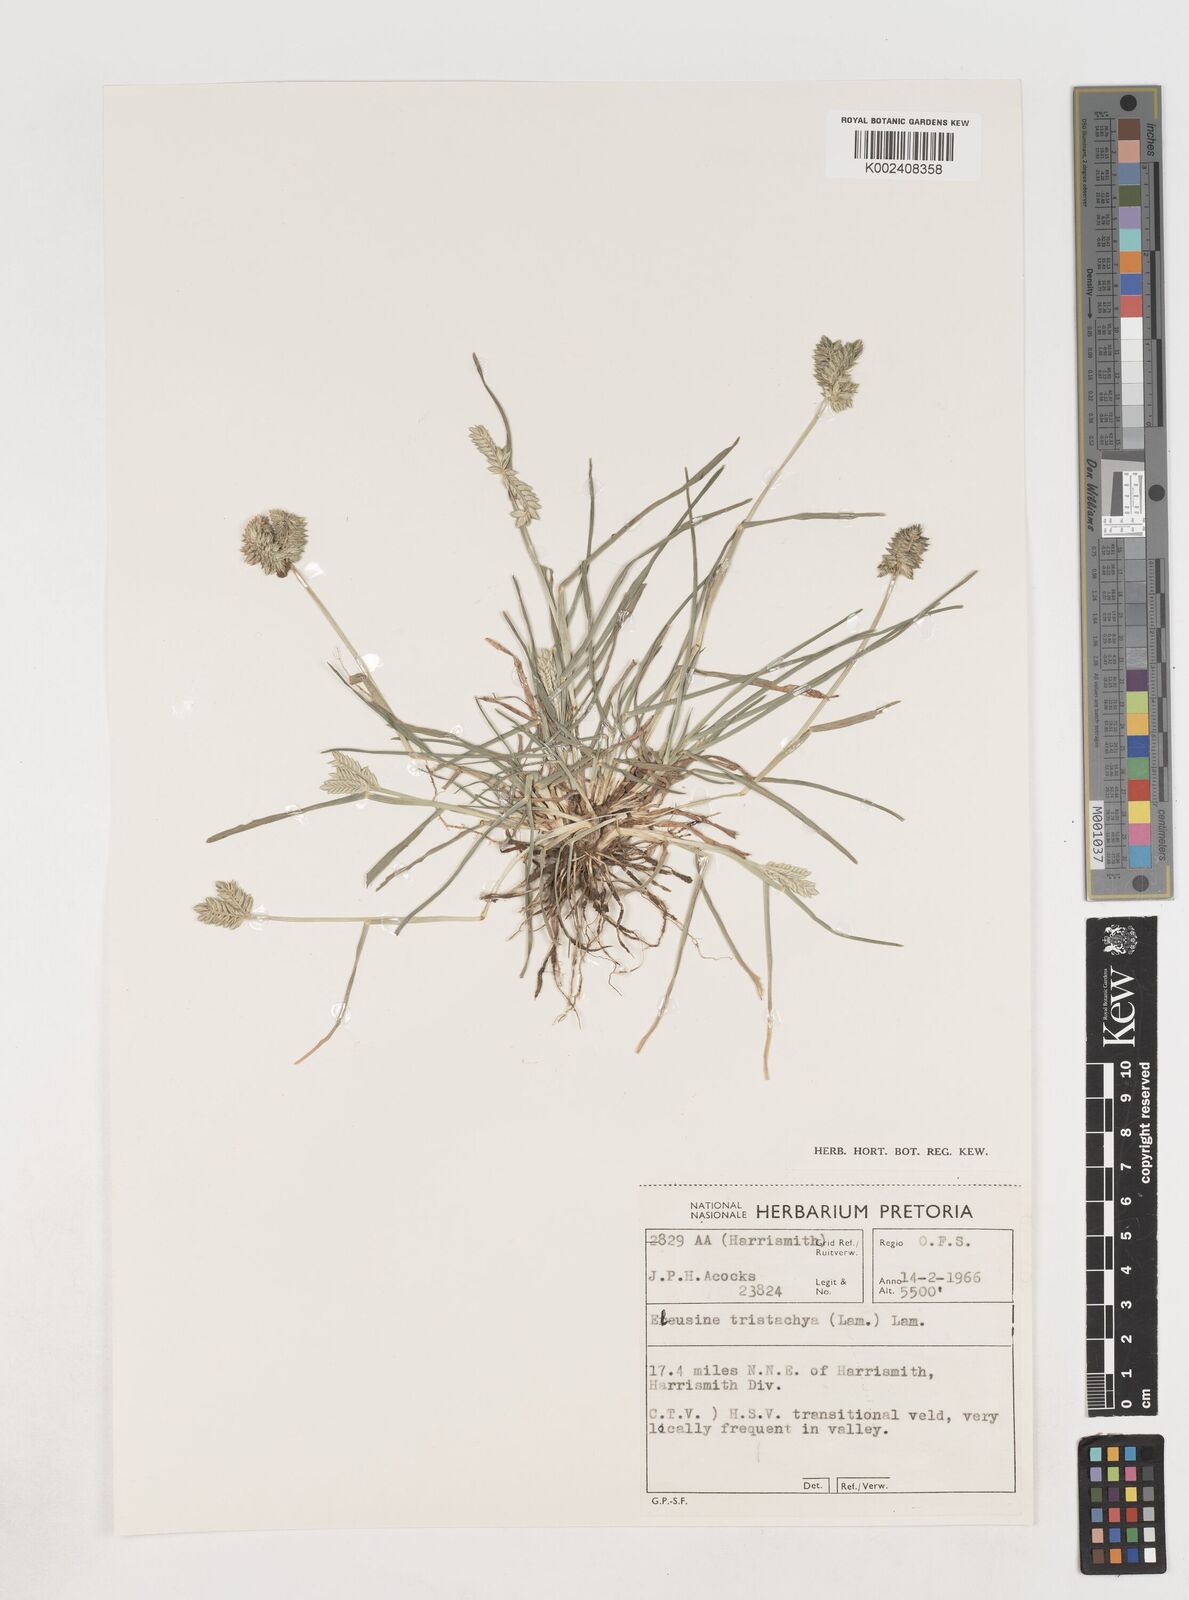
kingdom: Plantae
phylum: Tracheophyta
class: Liliopsida
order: Poales
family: Poaceae
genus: Eleusine
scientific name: Eleusine tristachya
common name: American yard-grass
